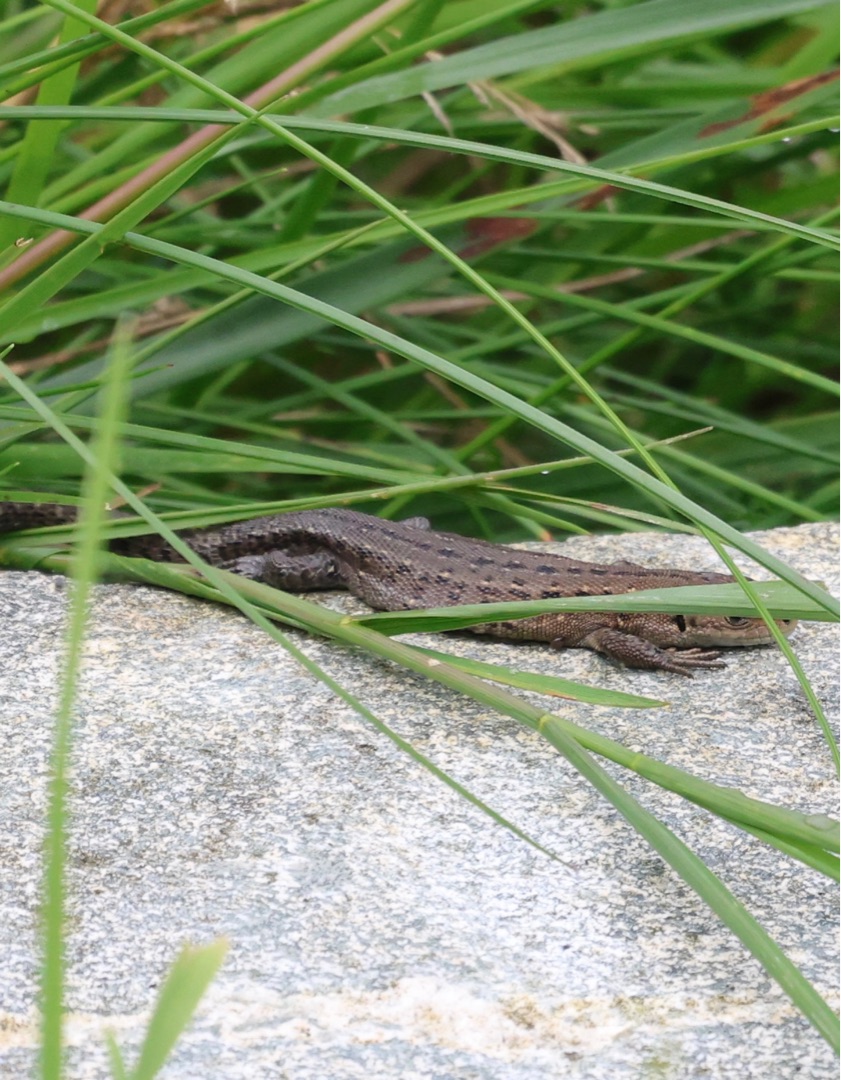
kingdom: Animalia
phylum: Chordata
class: Squamata
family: Lacertidae
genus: Zootoca
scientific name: Zootoca vivipara
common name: Skovfirben
